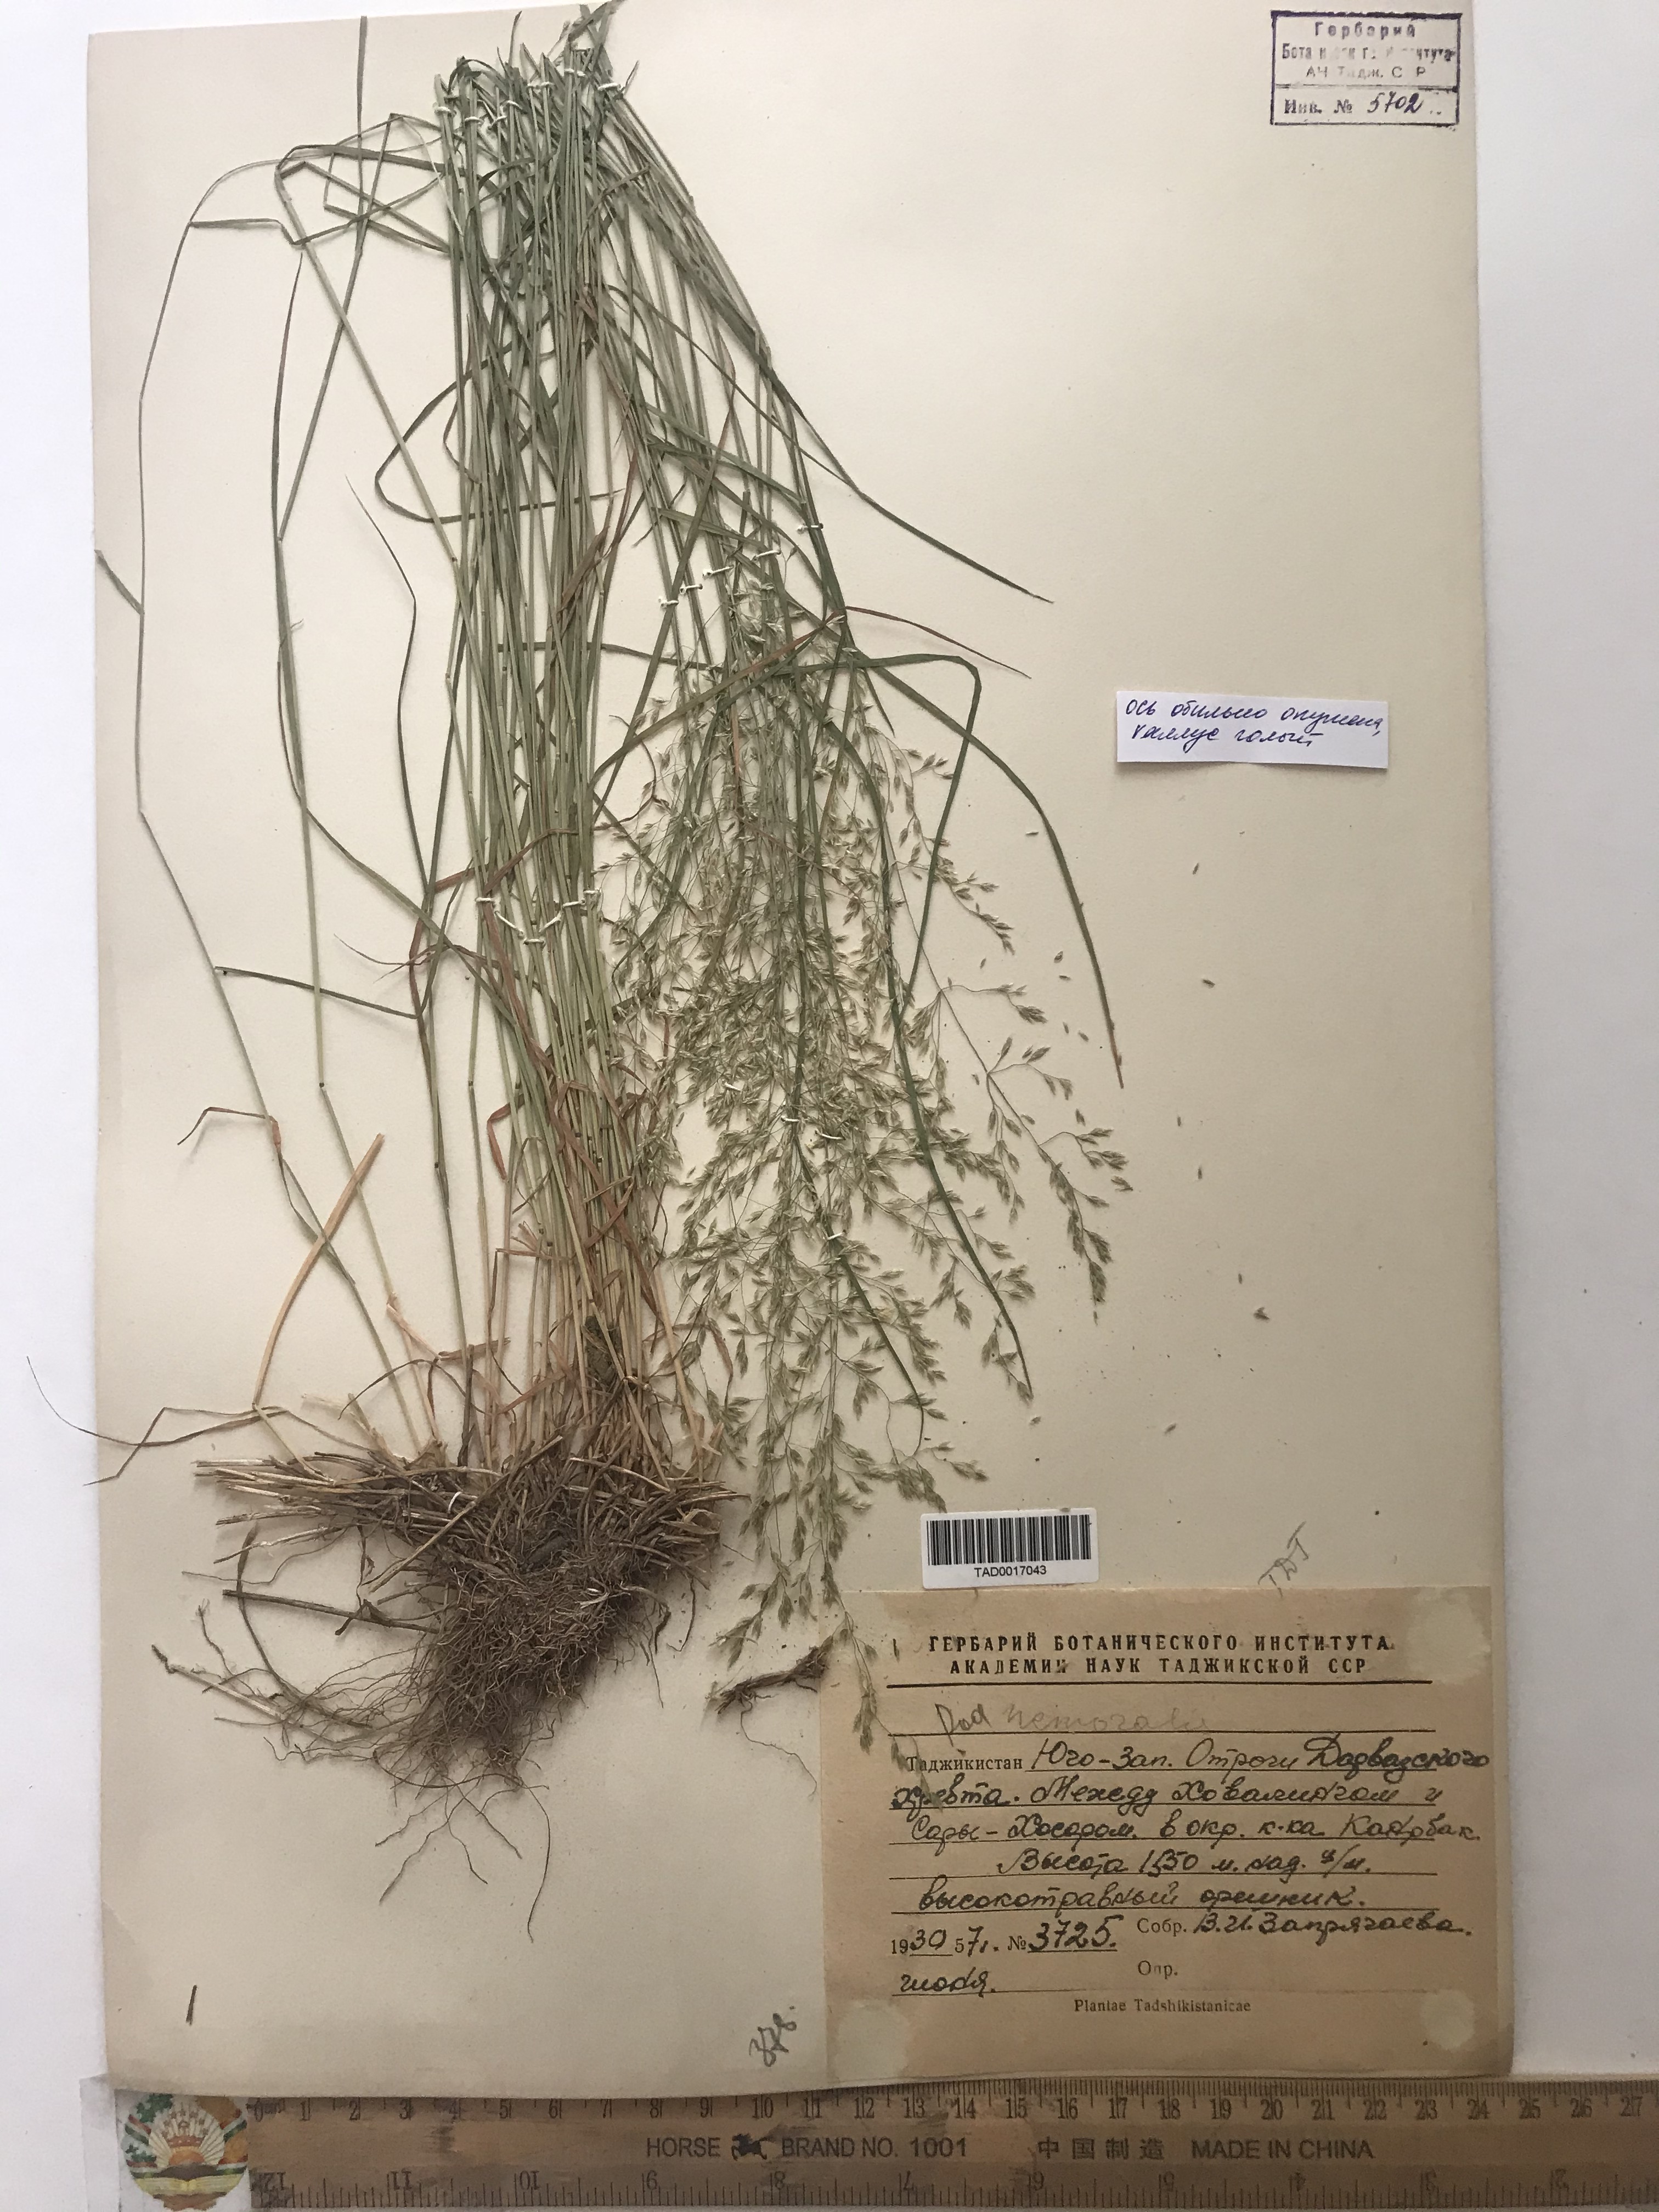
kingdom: Plantae
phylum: Tracheophyta
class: Liliopsida
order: Poales
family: Poaceae
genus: Poa
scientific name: Poa nemoralis
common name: Wood bluegrass
